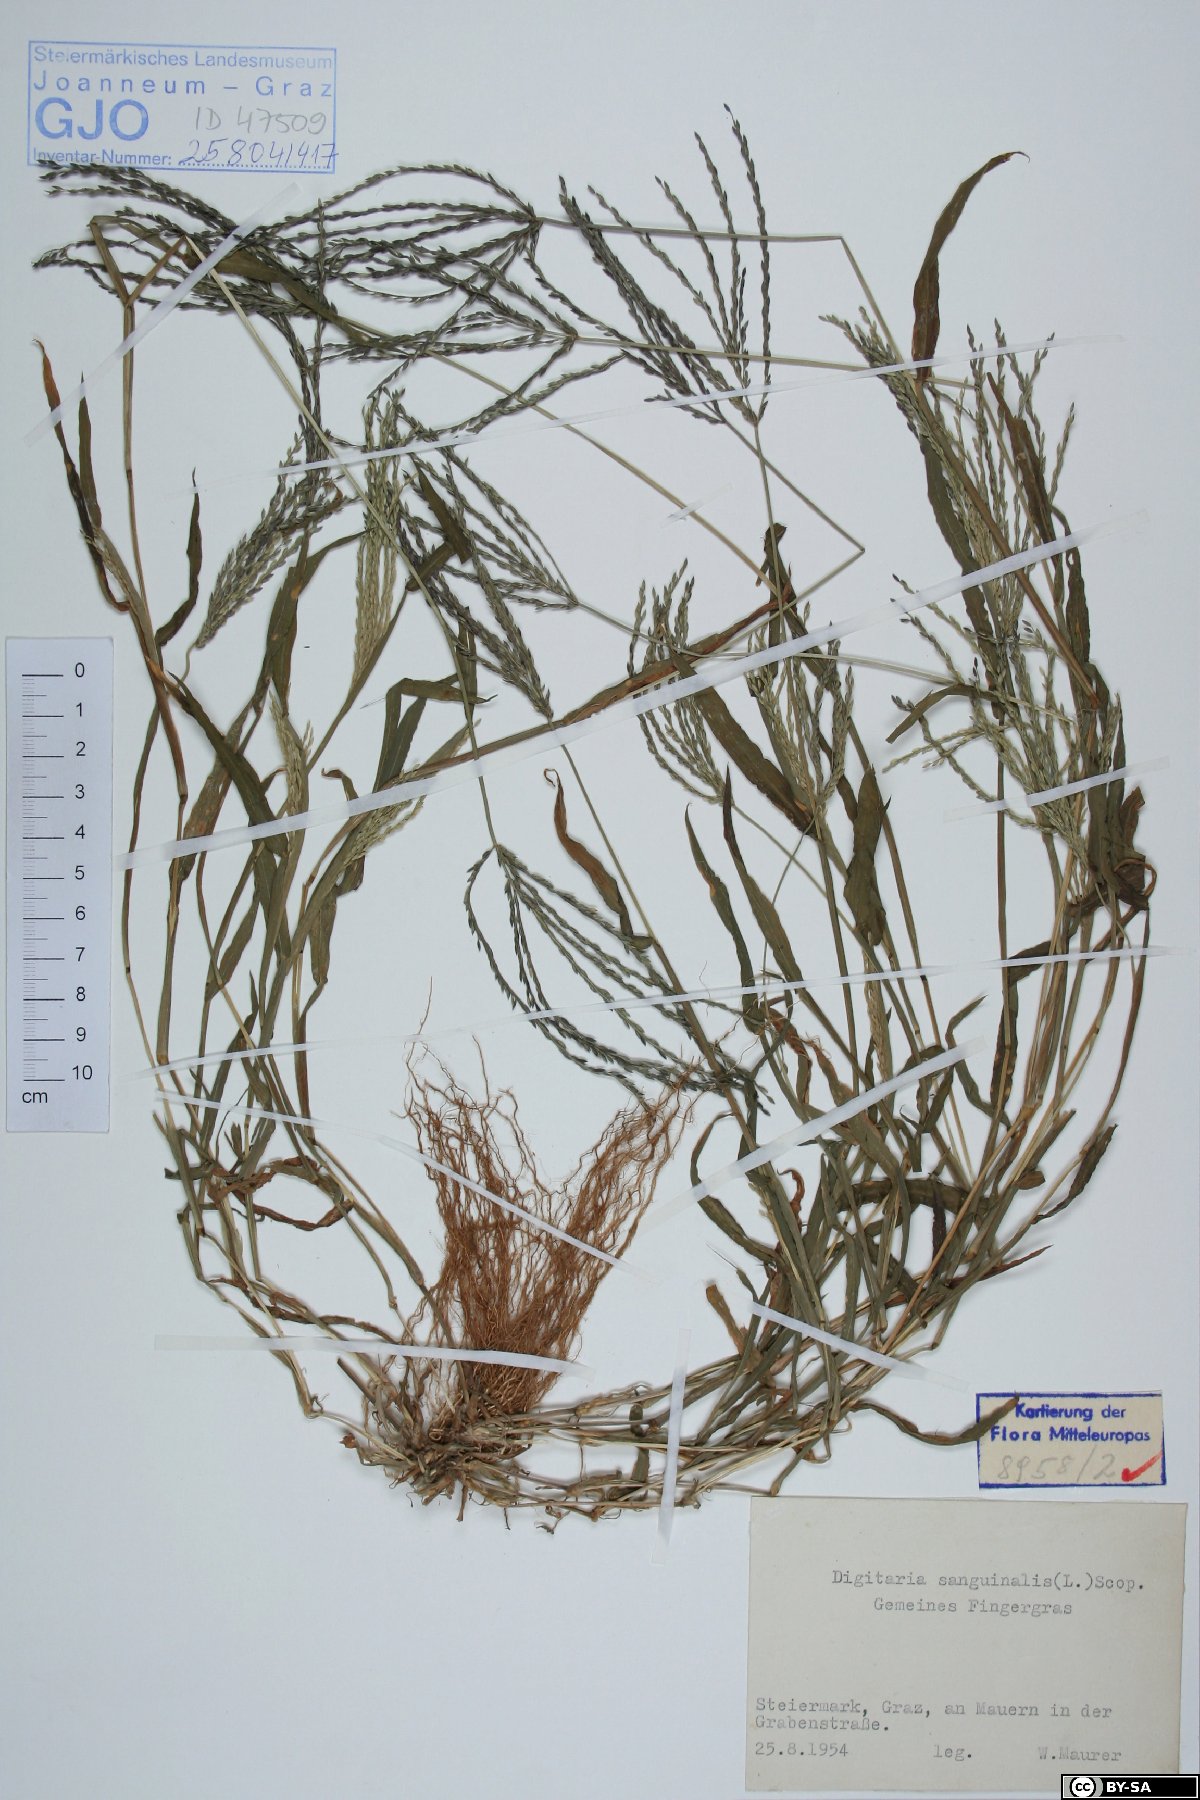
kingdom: Plantae
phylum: Tracheophyta
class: Liliopsida
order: Poales
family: Poaceae
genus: Digitaria
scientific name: Digitaria sanguinalis
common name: Hairy crabgrass
